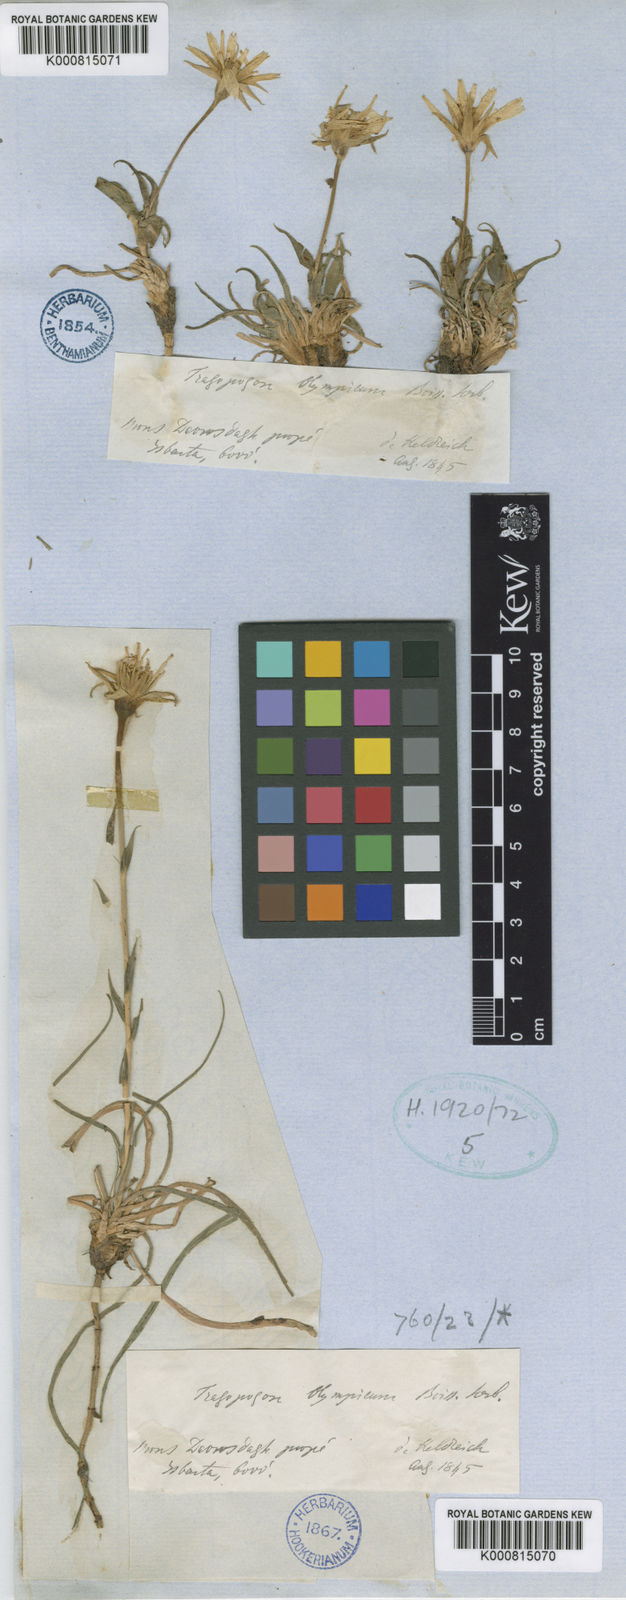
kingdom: Plantae
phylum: Tracheophyta
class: Magnoliopsida
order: Asterales
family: Asteraceae
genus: Tragopogon
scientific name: Tragopogon olympicus
